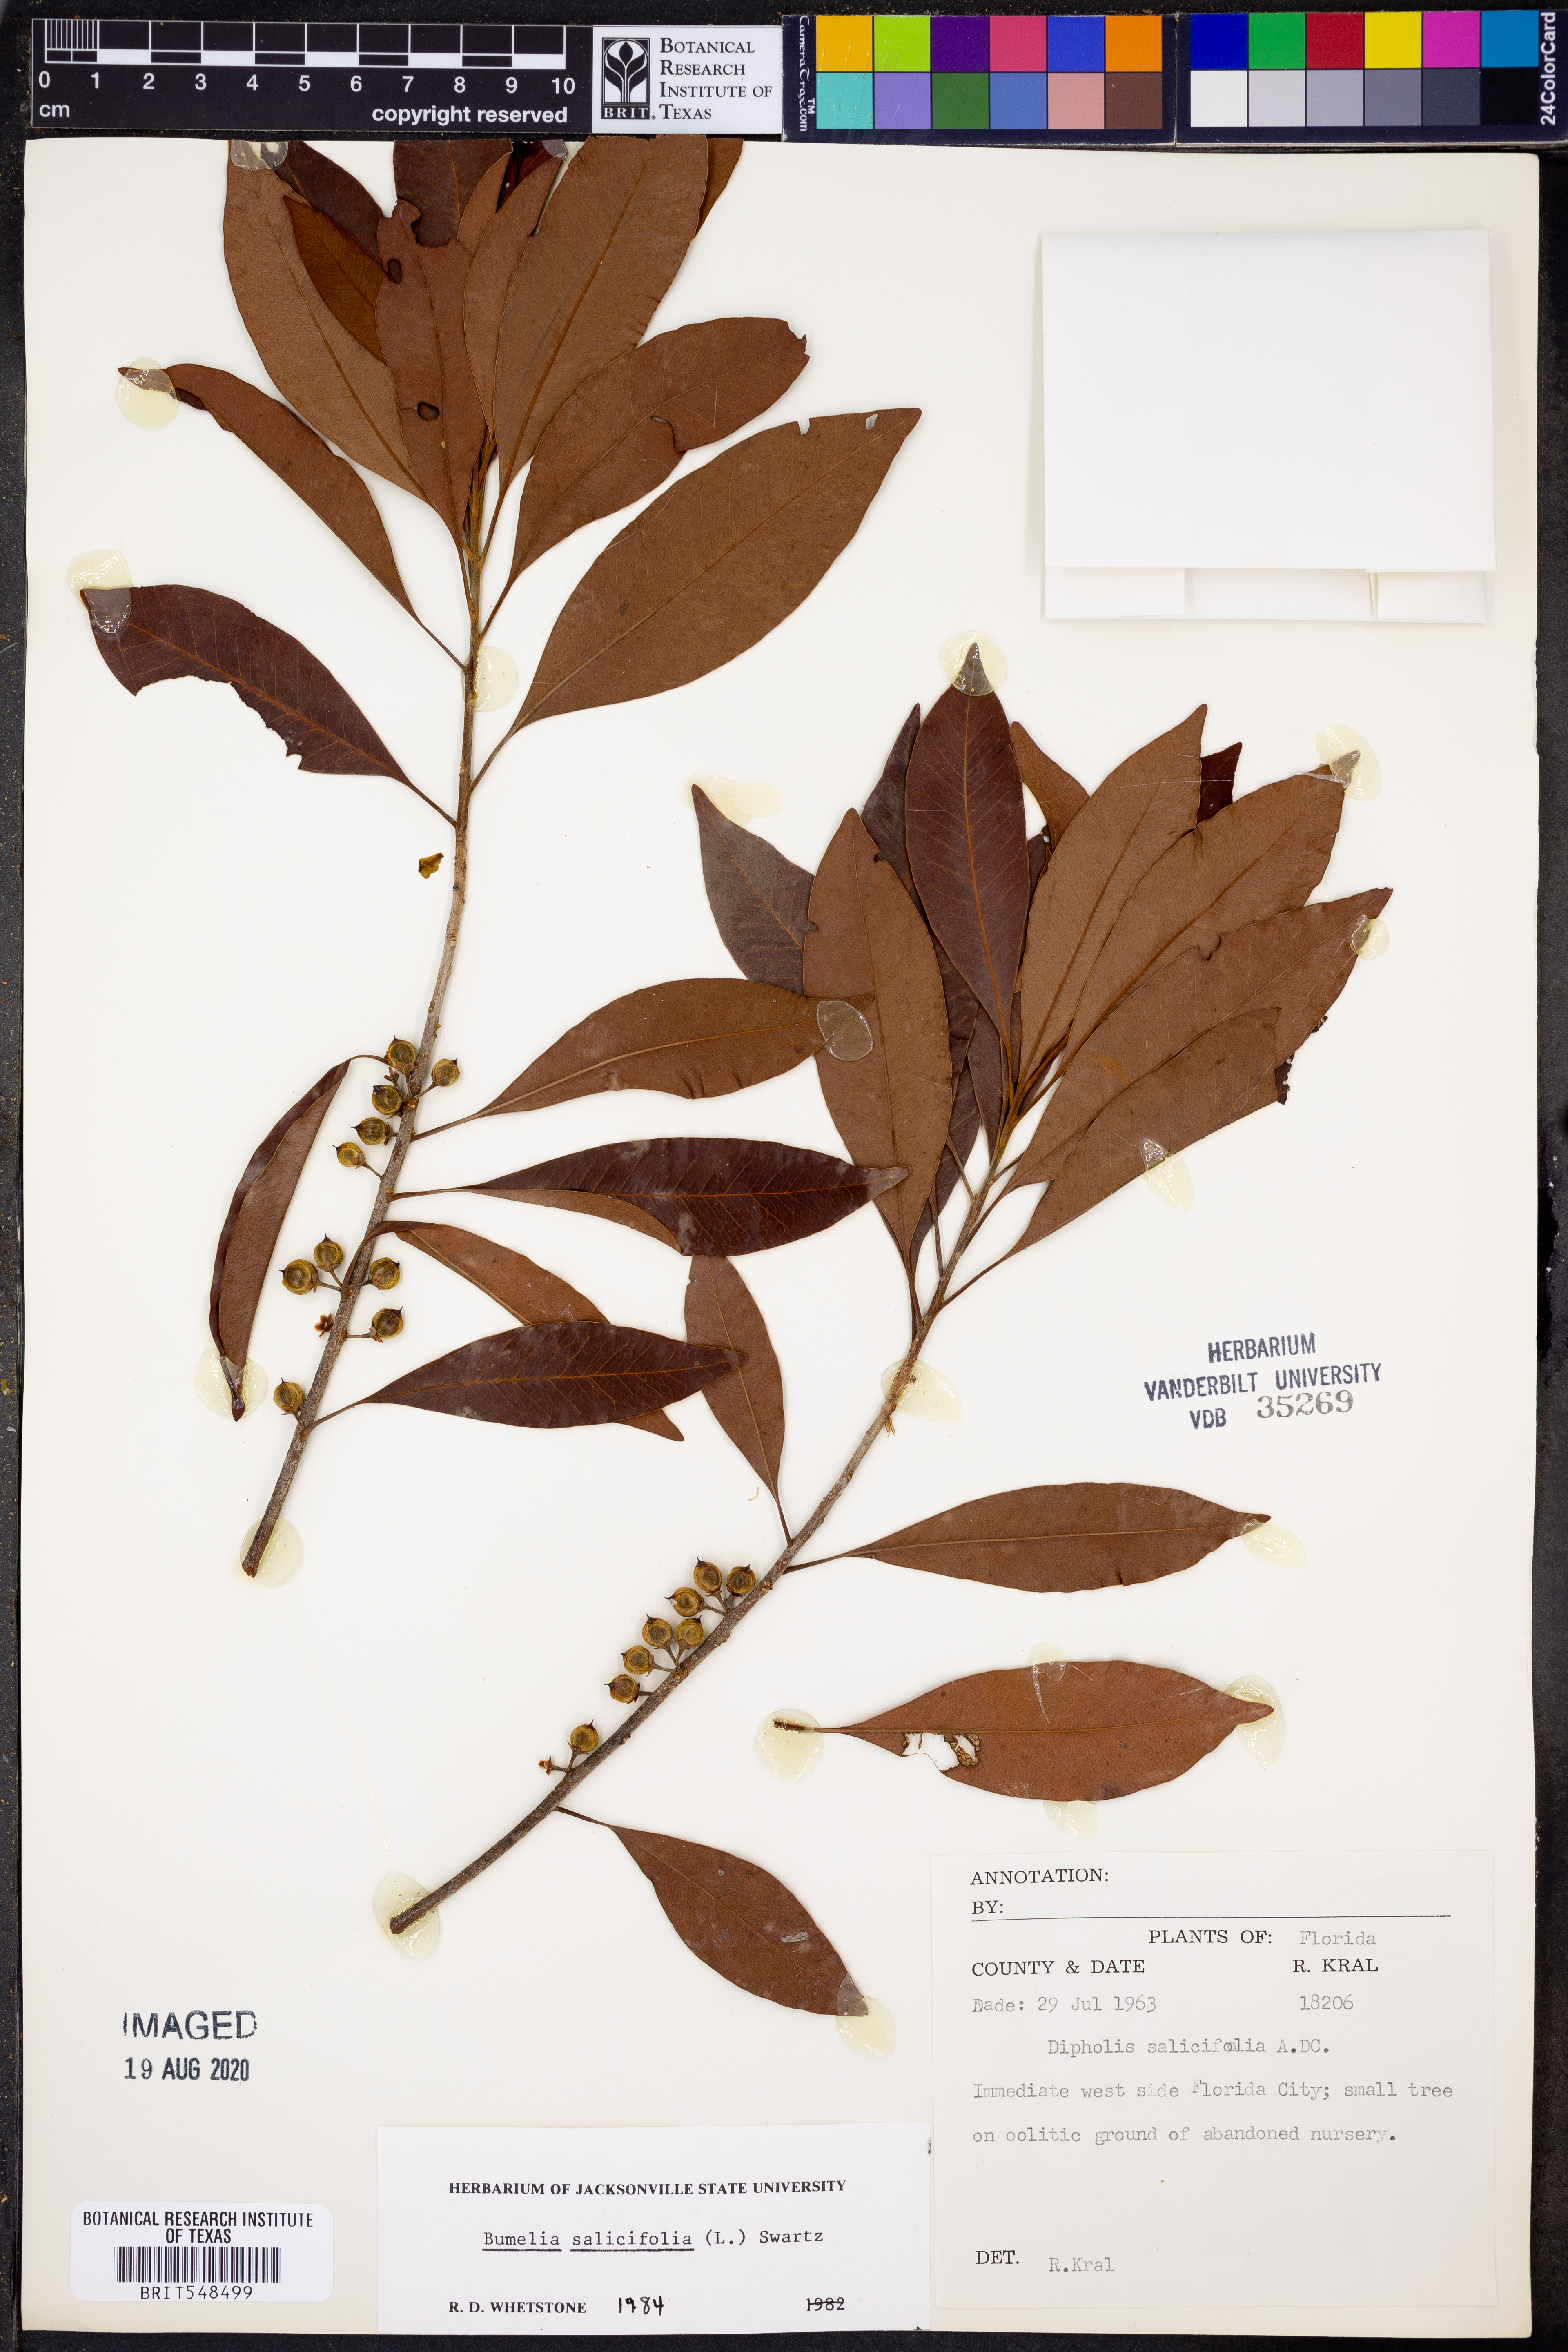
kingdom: Plantae
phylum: Tracheophyta
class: Magnoliopsida
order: Ericales
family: Sapotaceae
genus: Sideroxylon
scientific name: Sideroxylon salicifolium
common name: White bully
